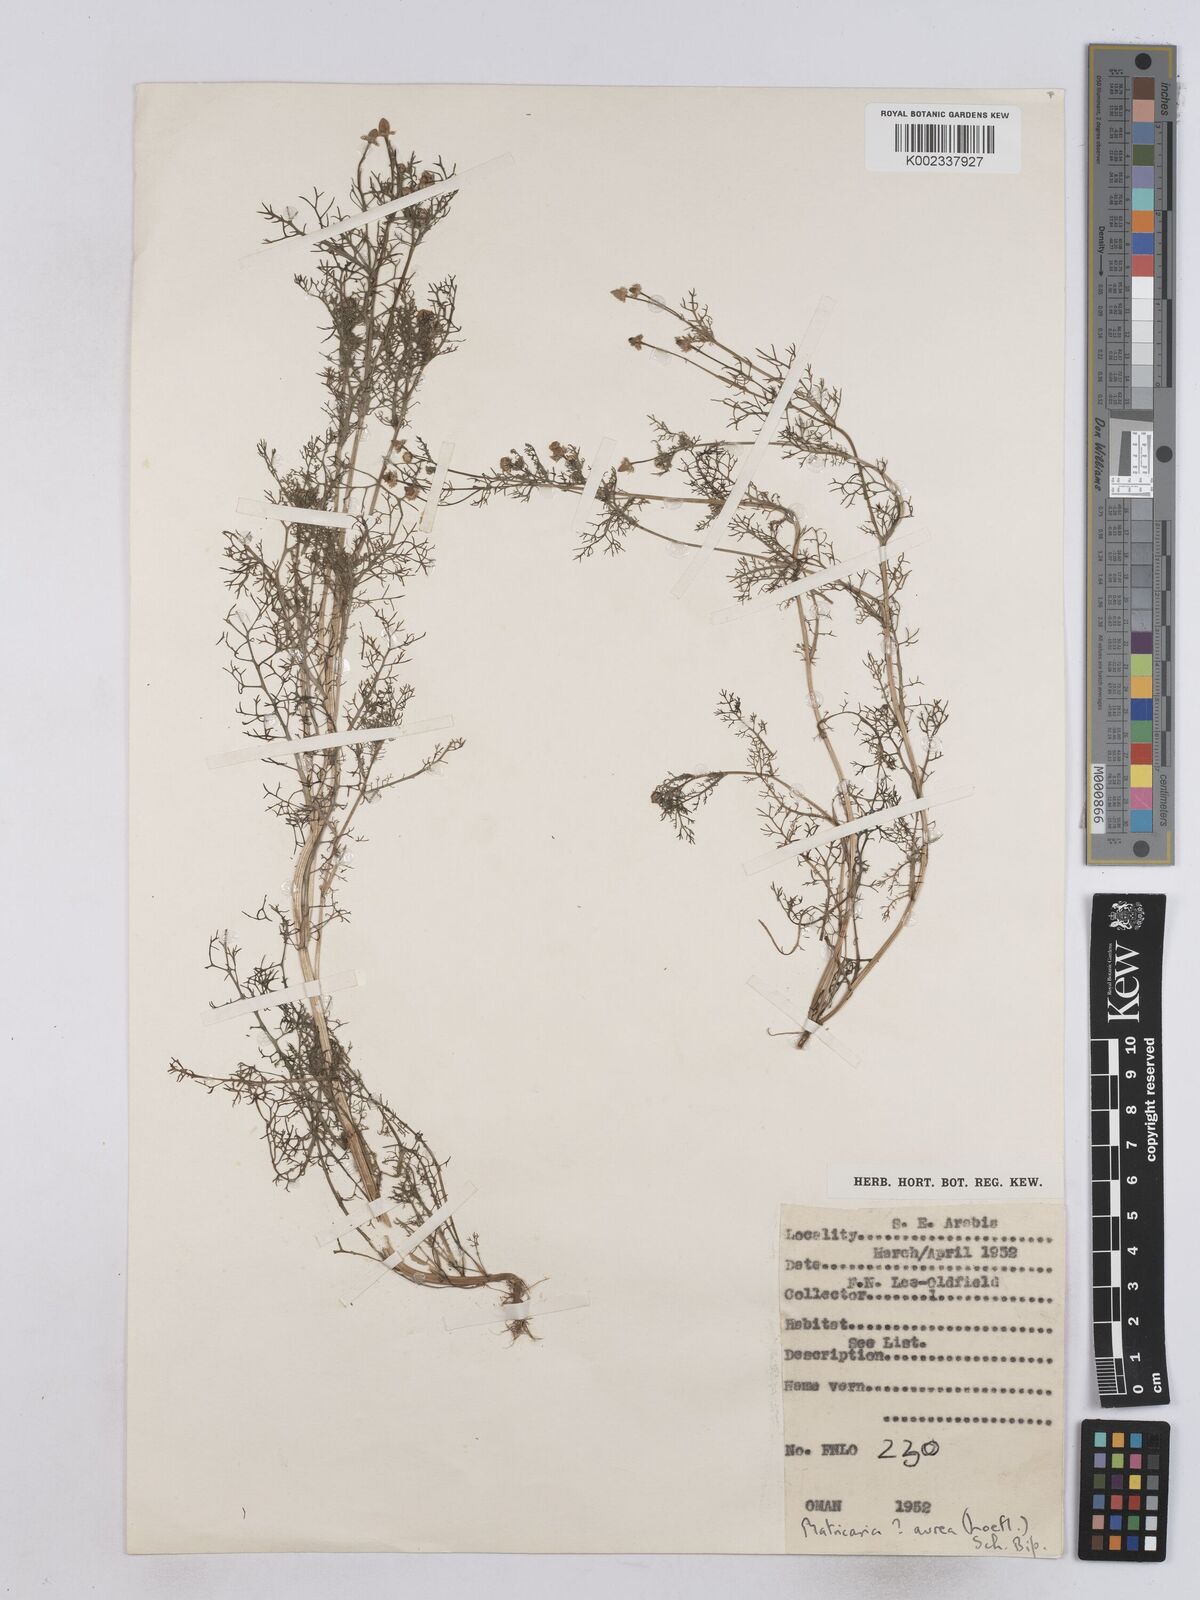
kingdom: Plantae
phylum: Tracheophyta
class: Magnoliopsida
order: Asterales
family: Asteraceae
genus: Matricaria
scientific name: Matricaria aurea
